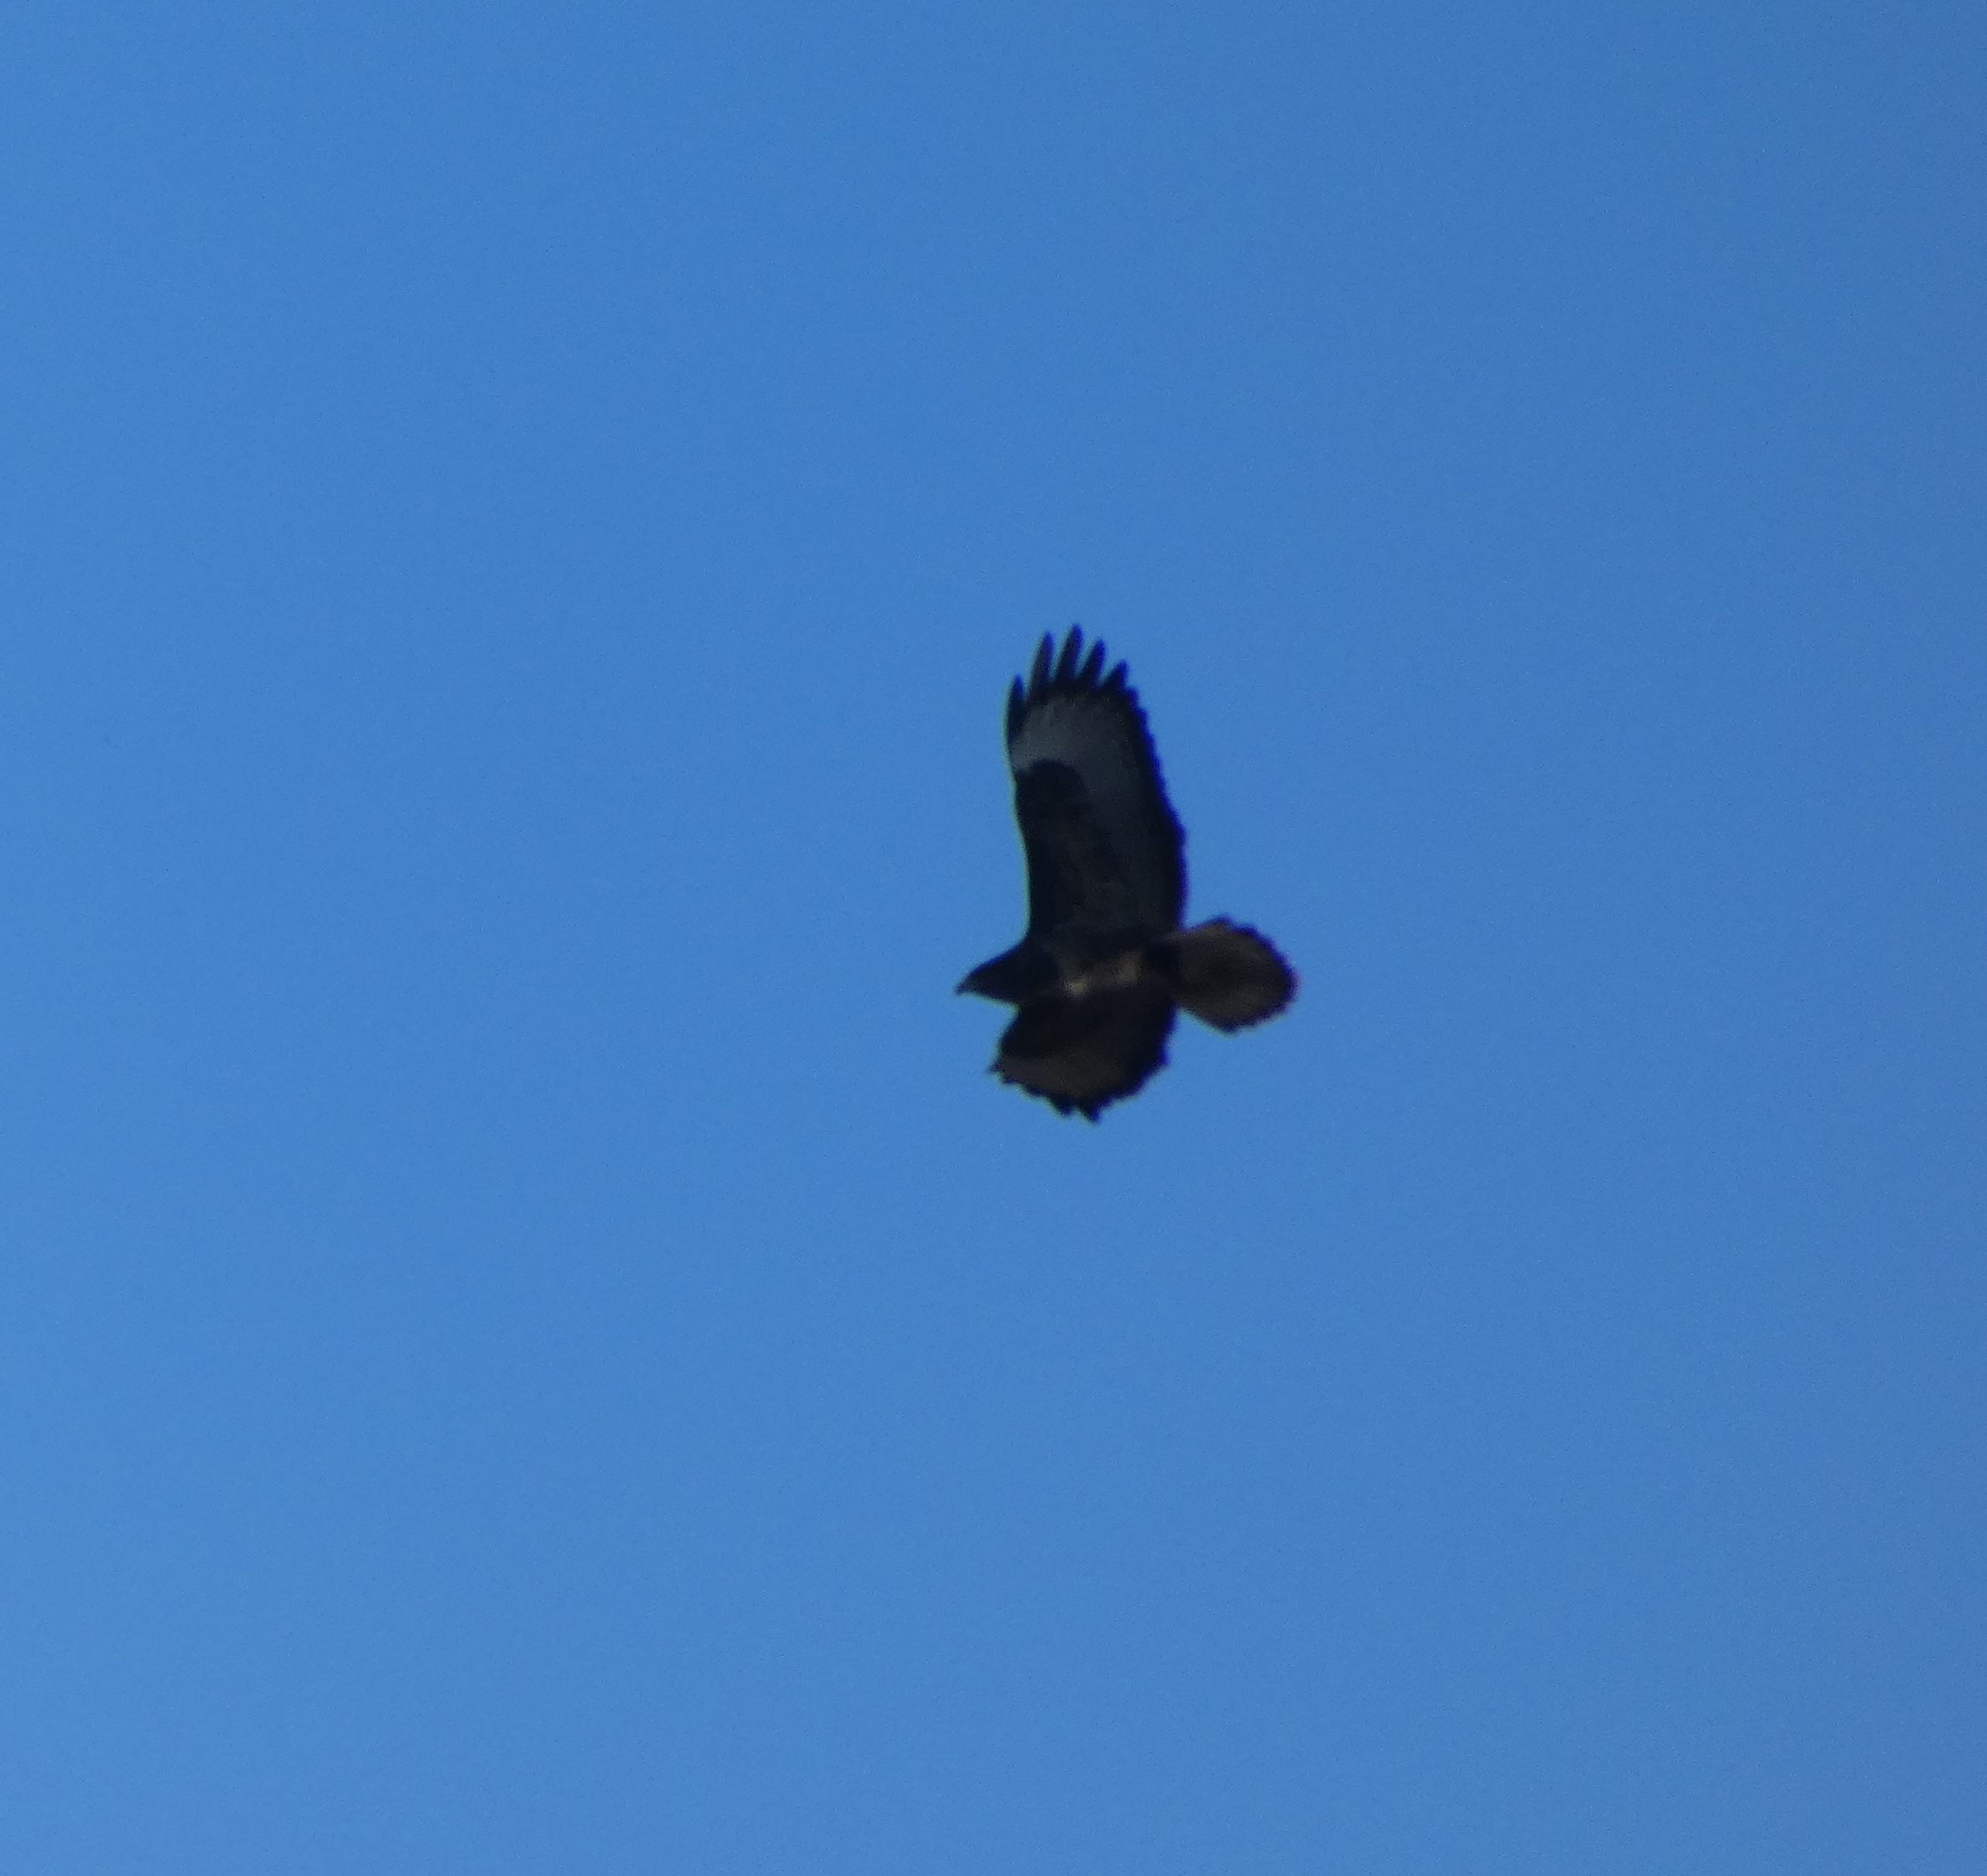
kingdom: Animalia
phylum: Chordata
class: Aves
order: Accipitriformes
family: Accipitridae
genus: Buteo
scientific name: Buteo buteo
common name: Musvåge
